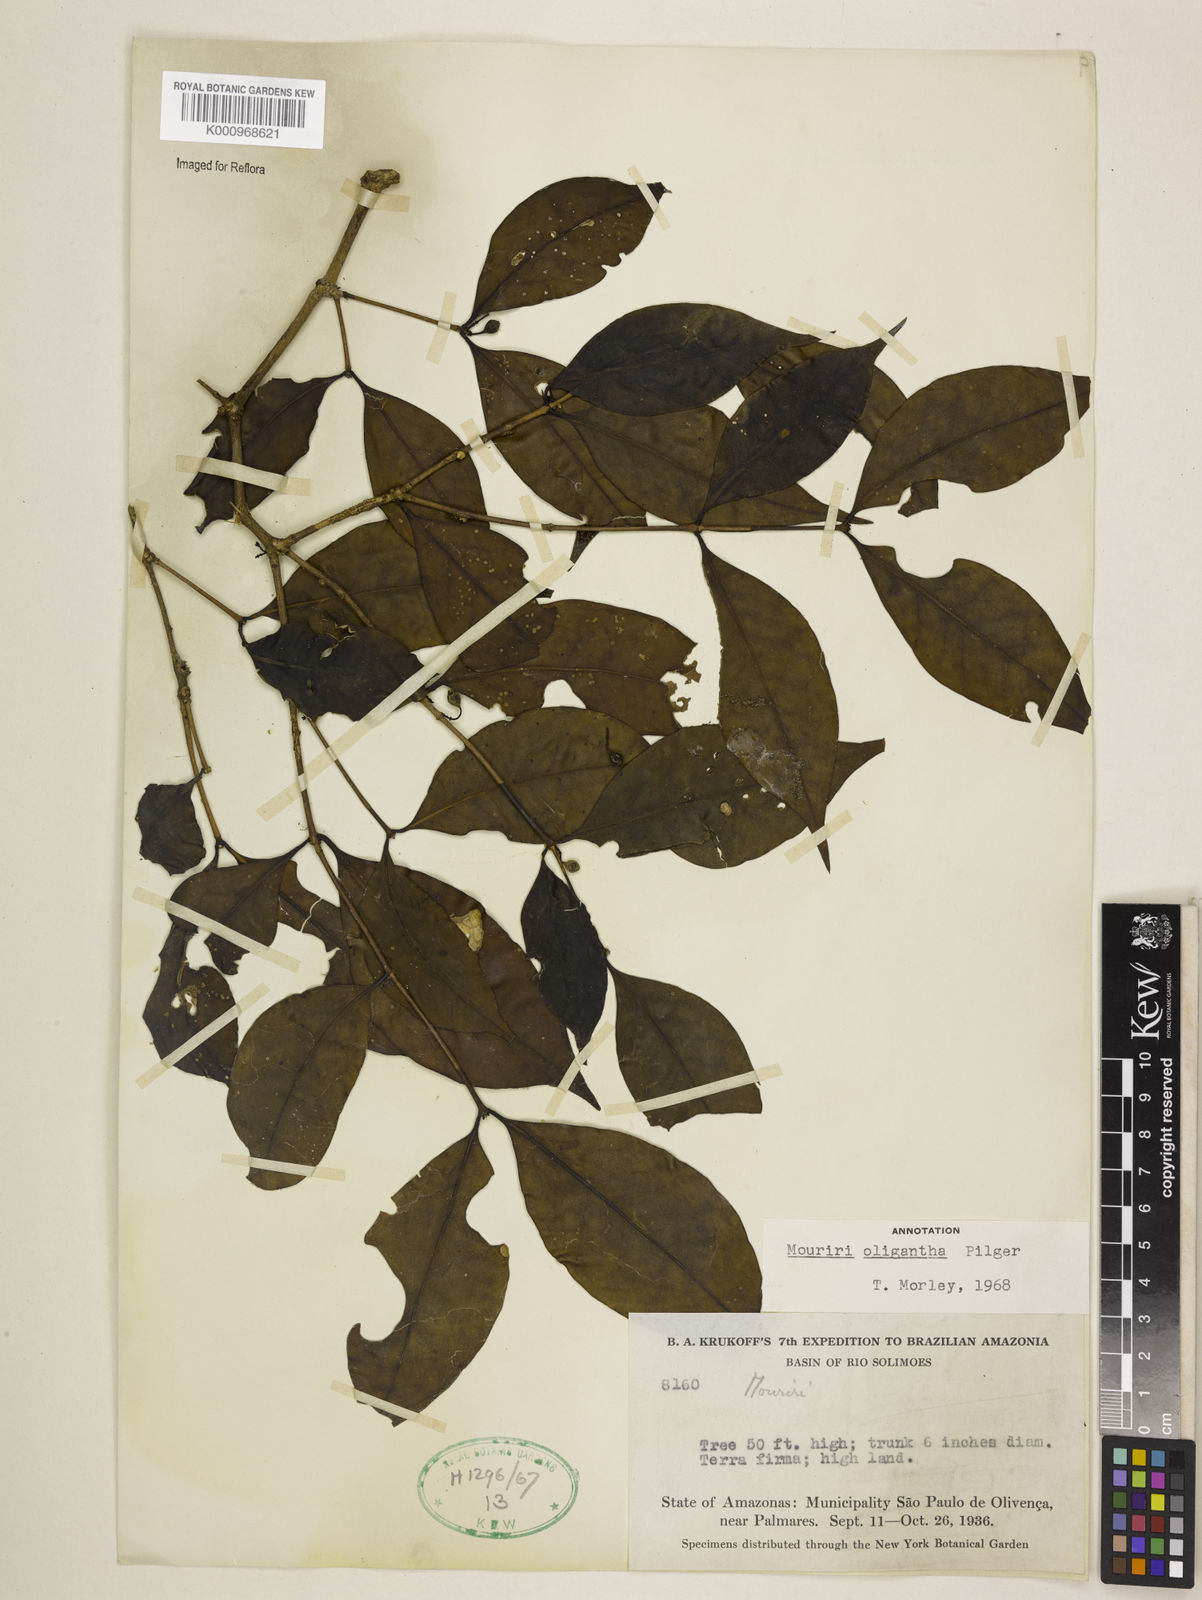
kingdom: Plantae
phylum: Tracheophyta
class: Magnoliopsida
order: Myrtales
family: Melastomataceae
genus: Mouriri
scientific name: Mouriri oligantha
